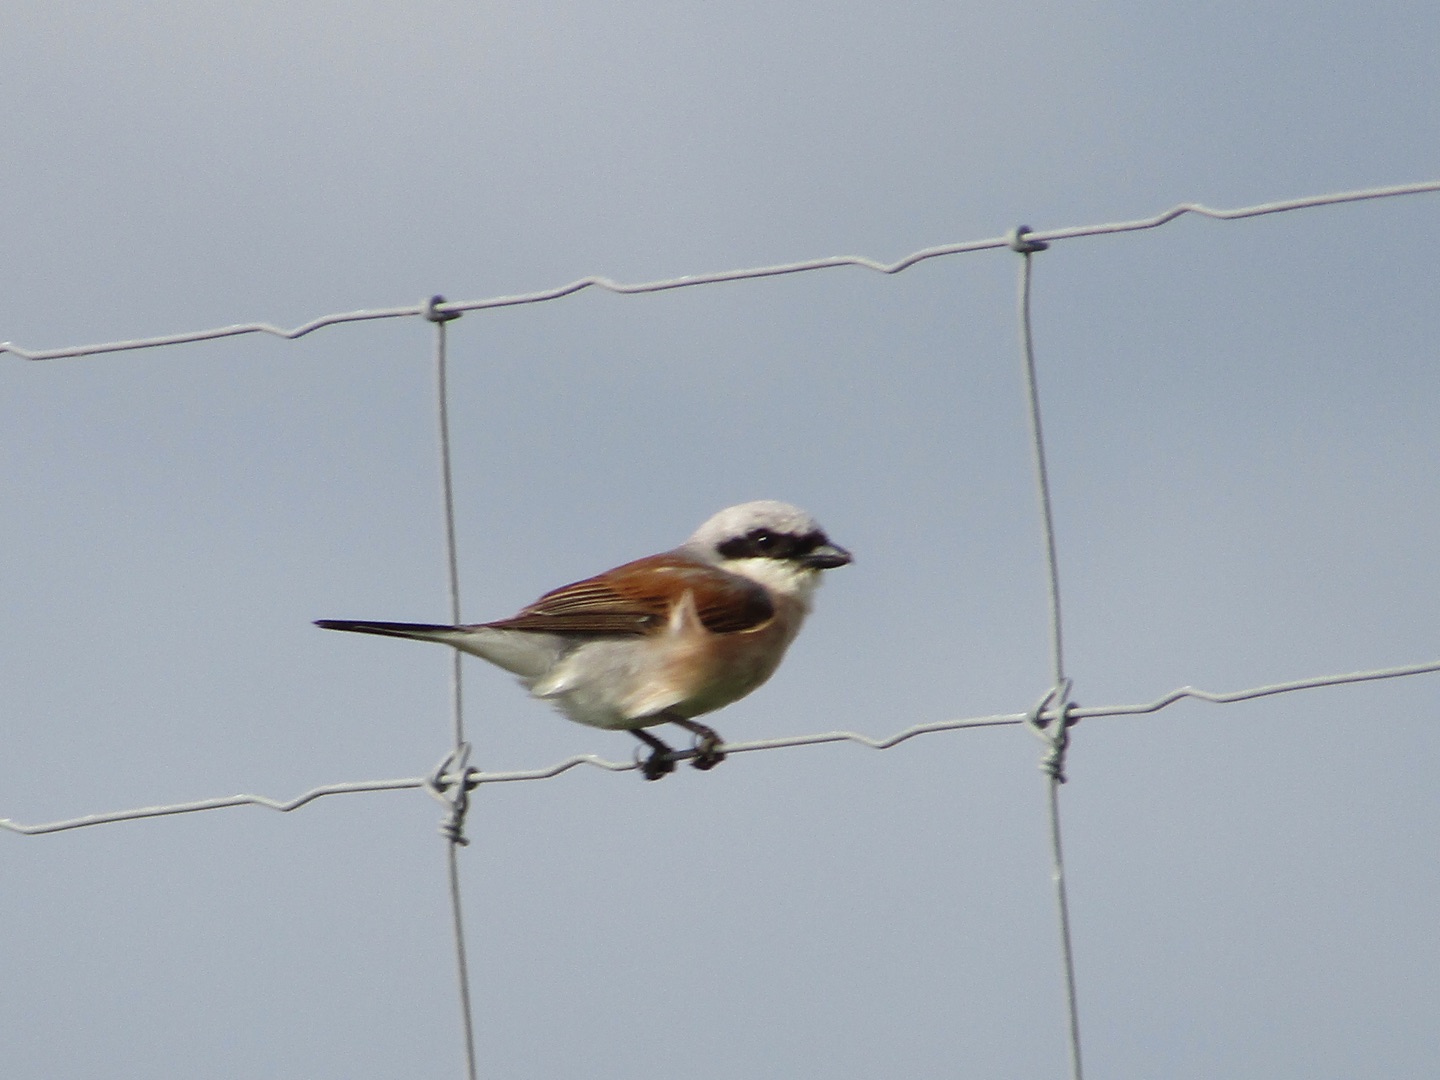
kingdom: Animalia
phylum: Chordata
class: Aves
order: Passeriformes
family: Laniidae
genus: Lanius
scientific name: Lanius collurio
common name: Rødrygget tornskade
